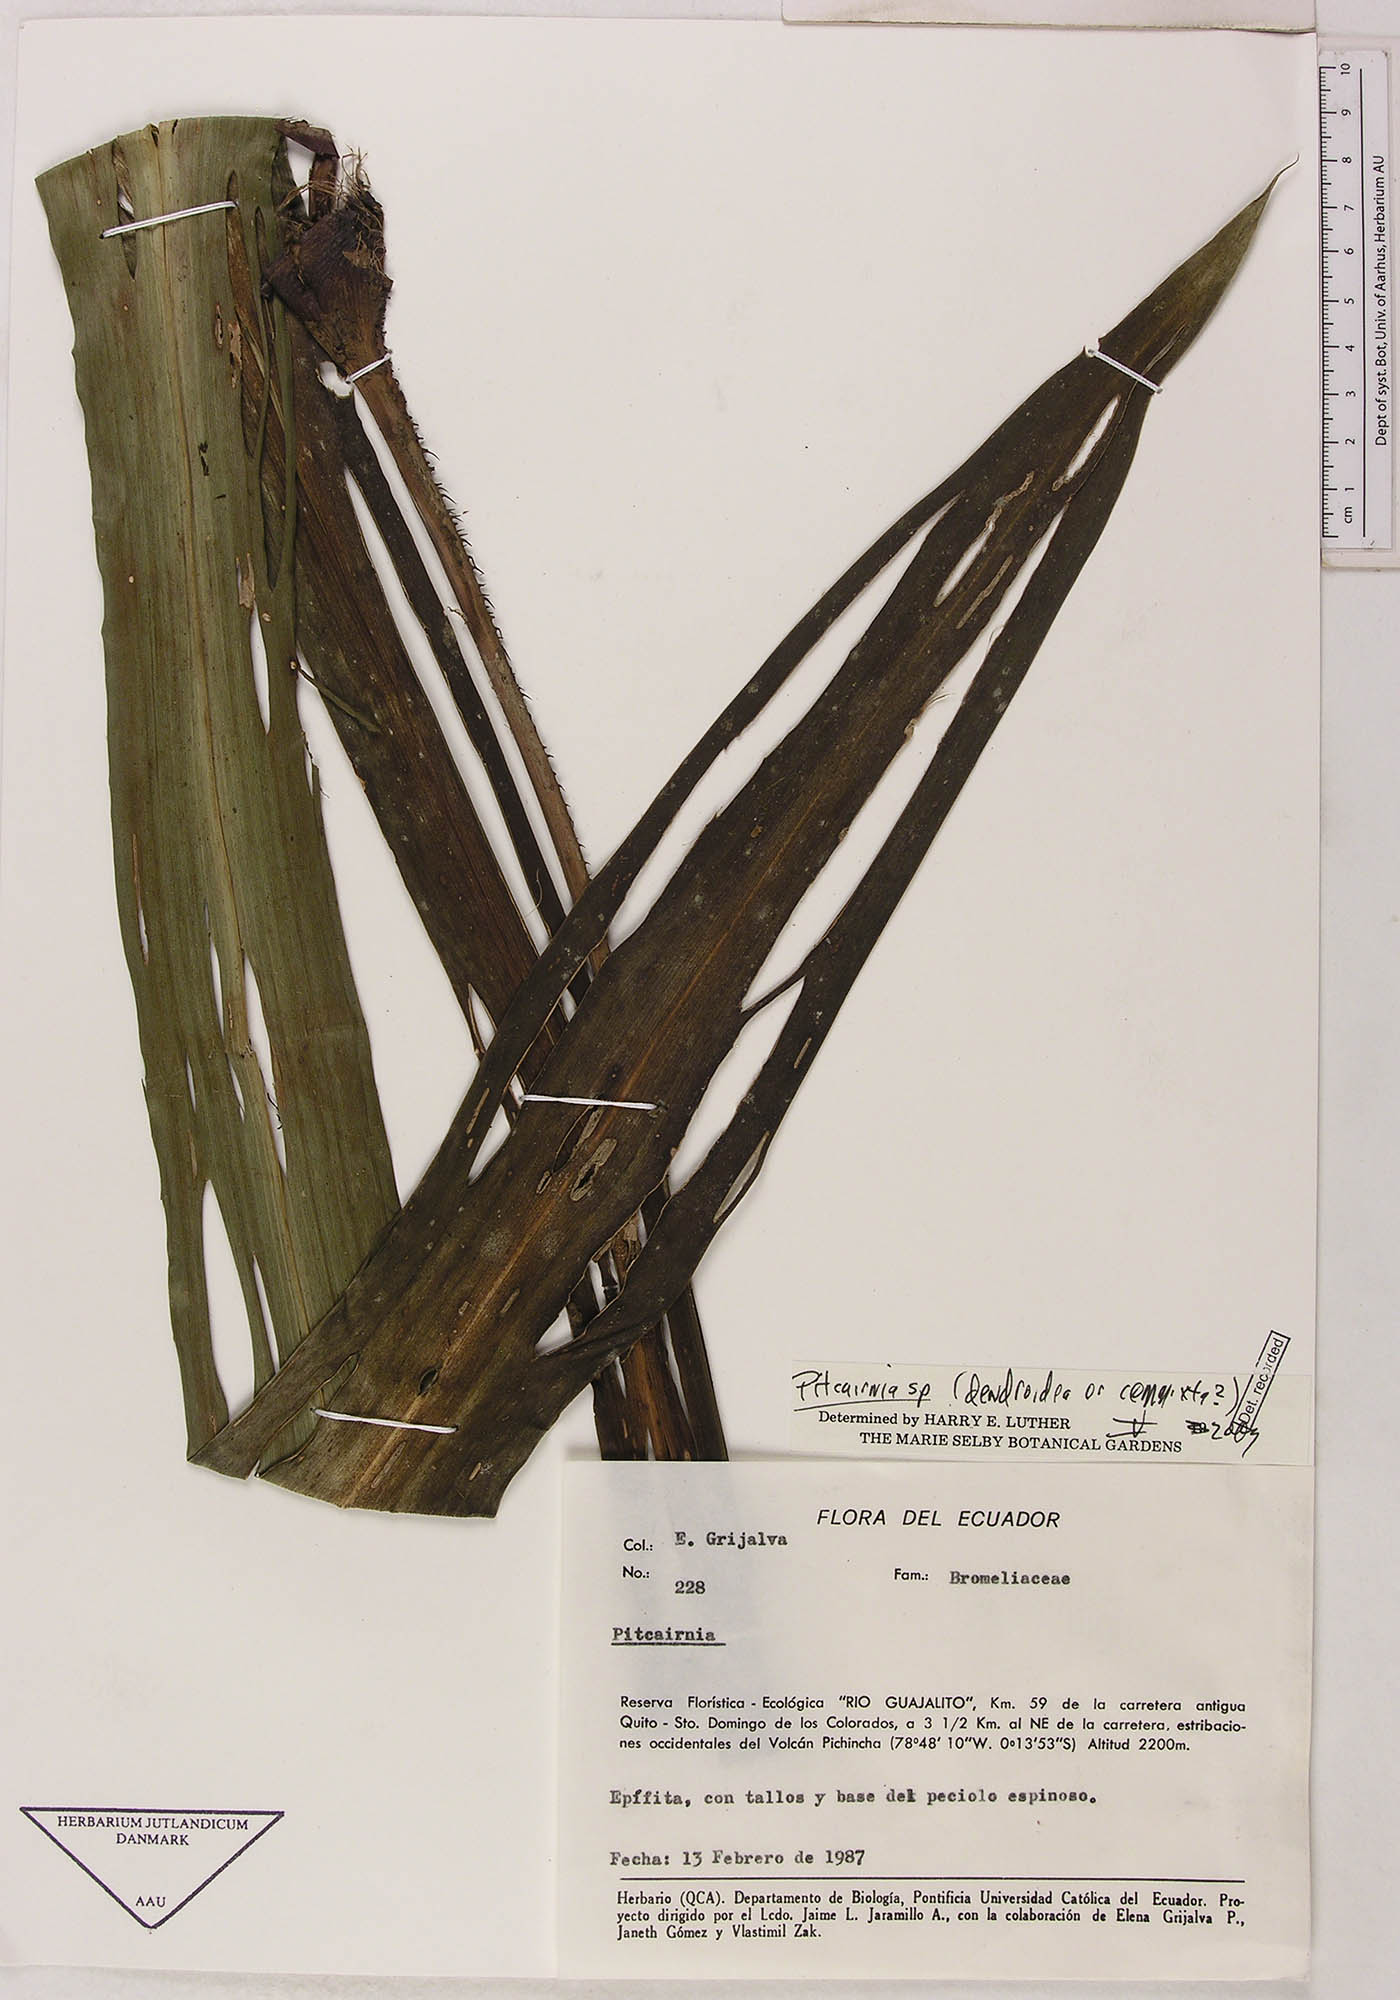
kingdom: Plantae
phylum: Tracheophyta
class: Liliopsida
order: Poales
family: Bromeliaceae
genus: Pitcairnia
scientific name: Pitcairnia
